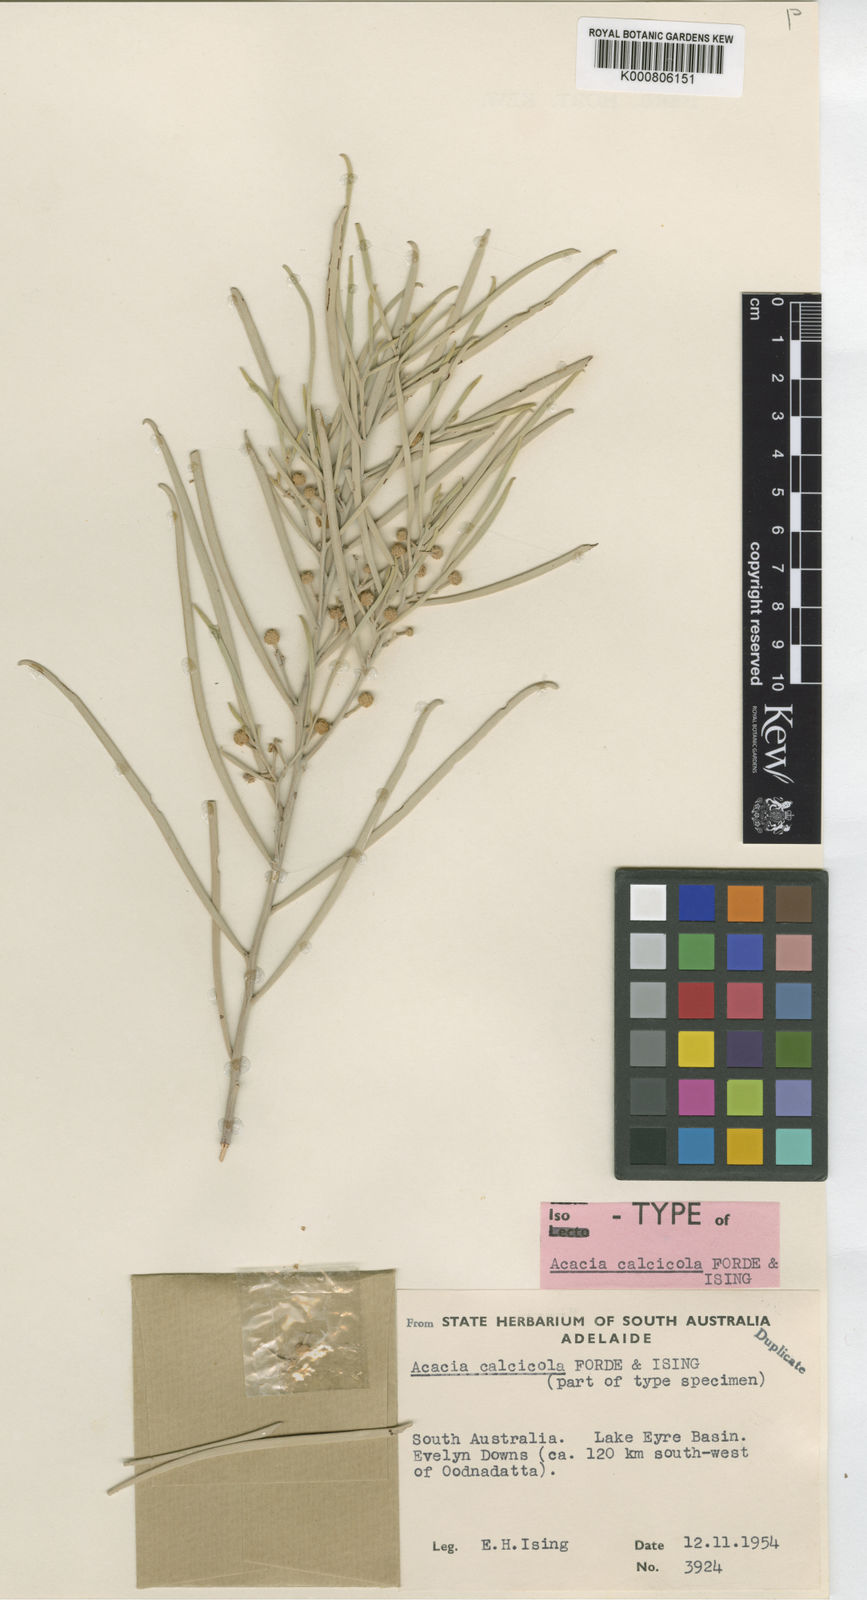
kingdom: Plantae
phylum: Tracheophyta
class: Magnoliopsida
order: Fabales
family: Fabaceae
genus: Acacia
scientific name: Acacia calcicola
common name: Northern myall
